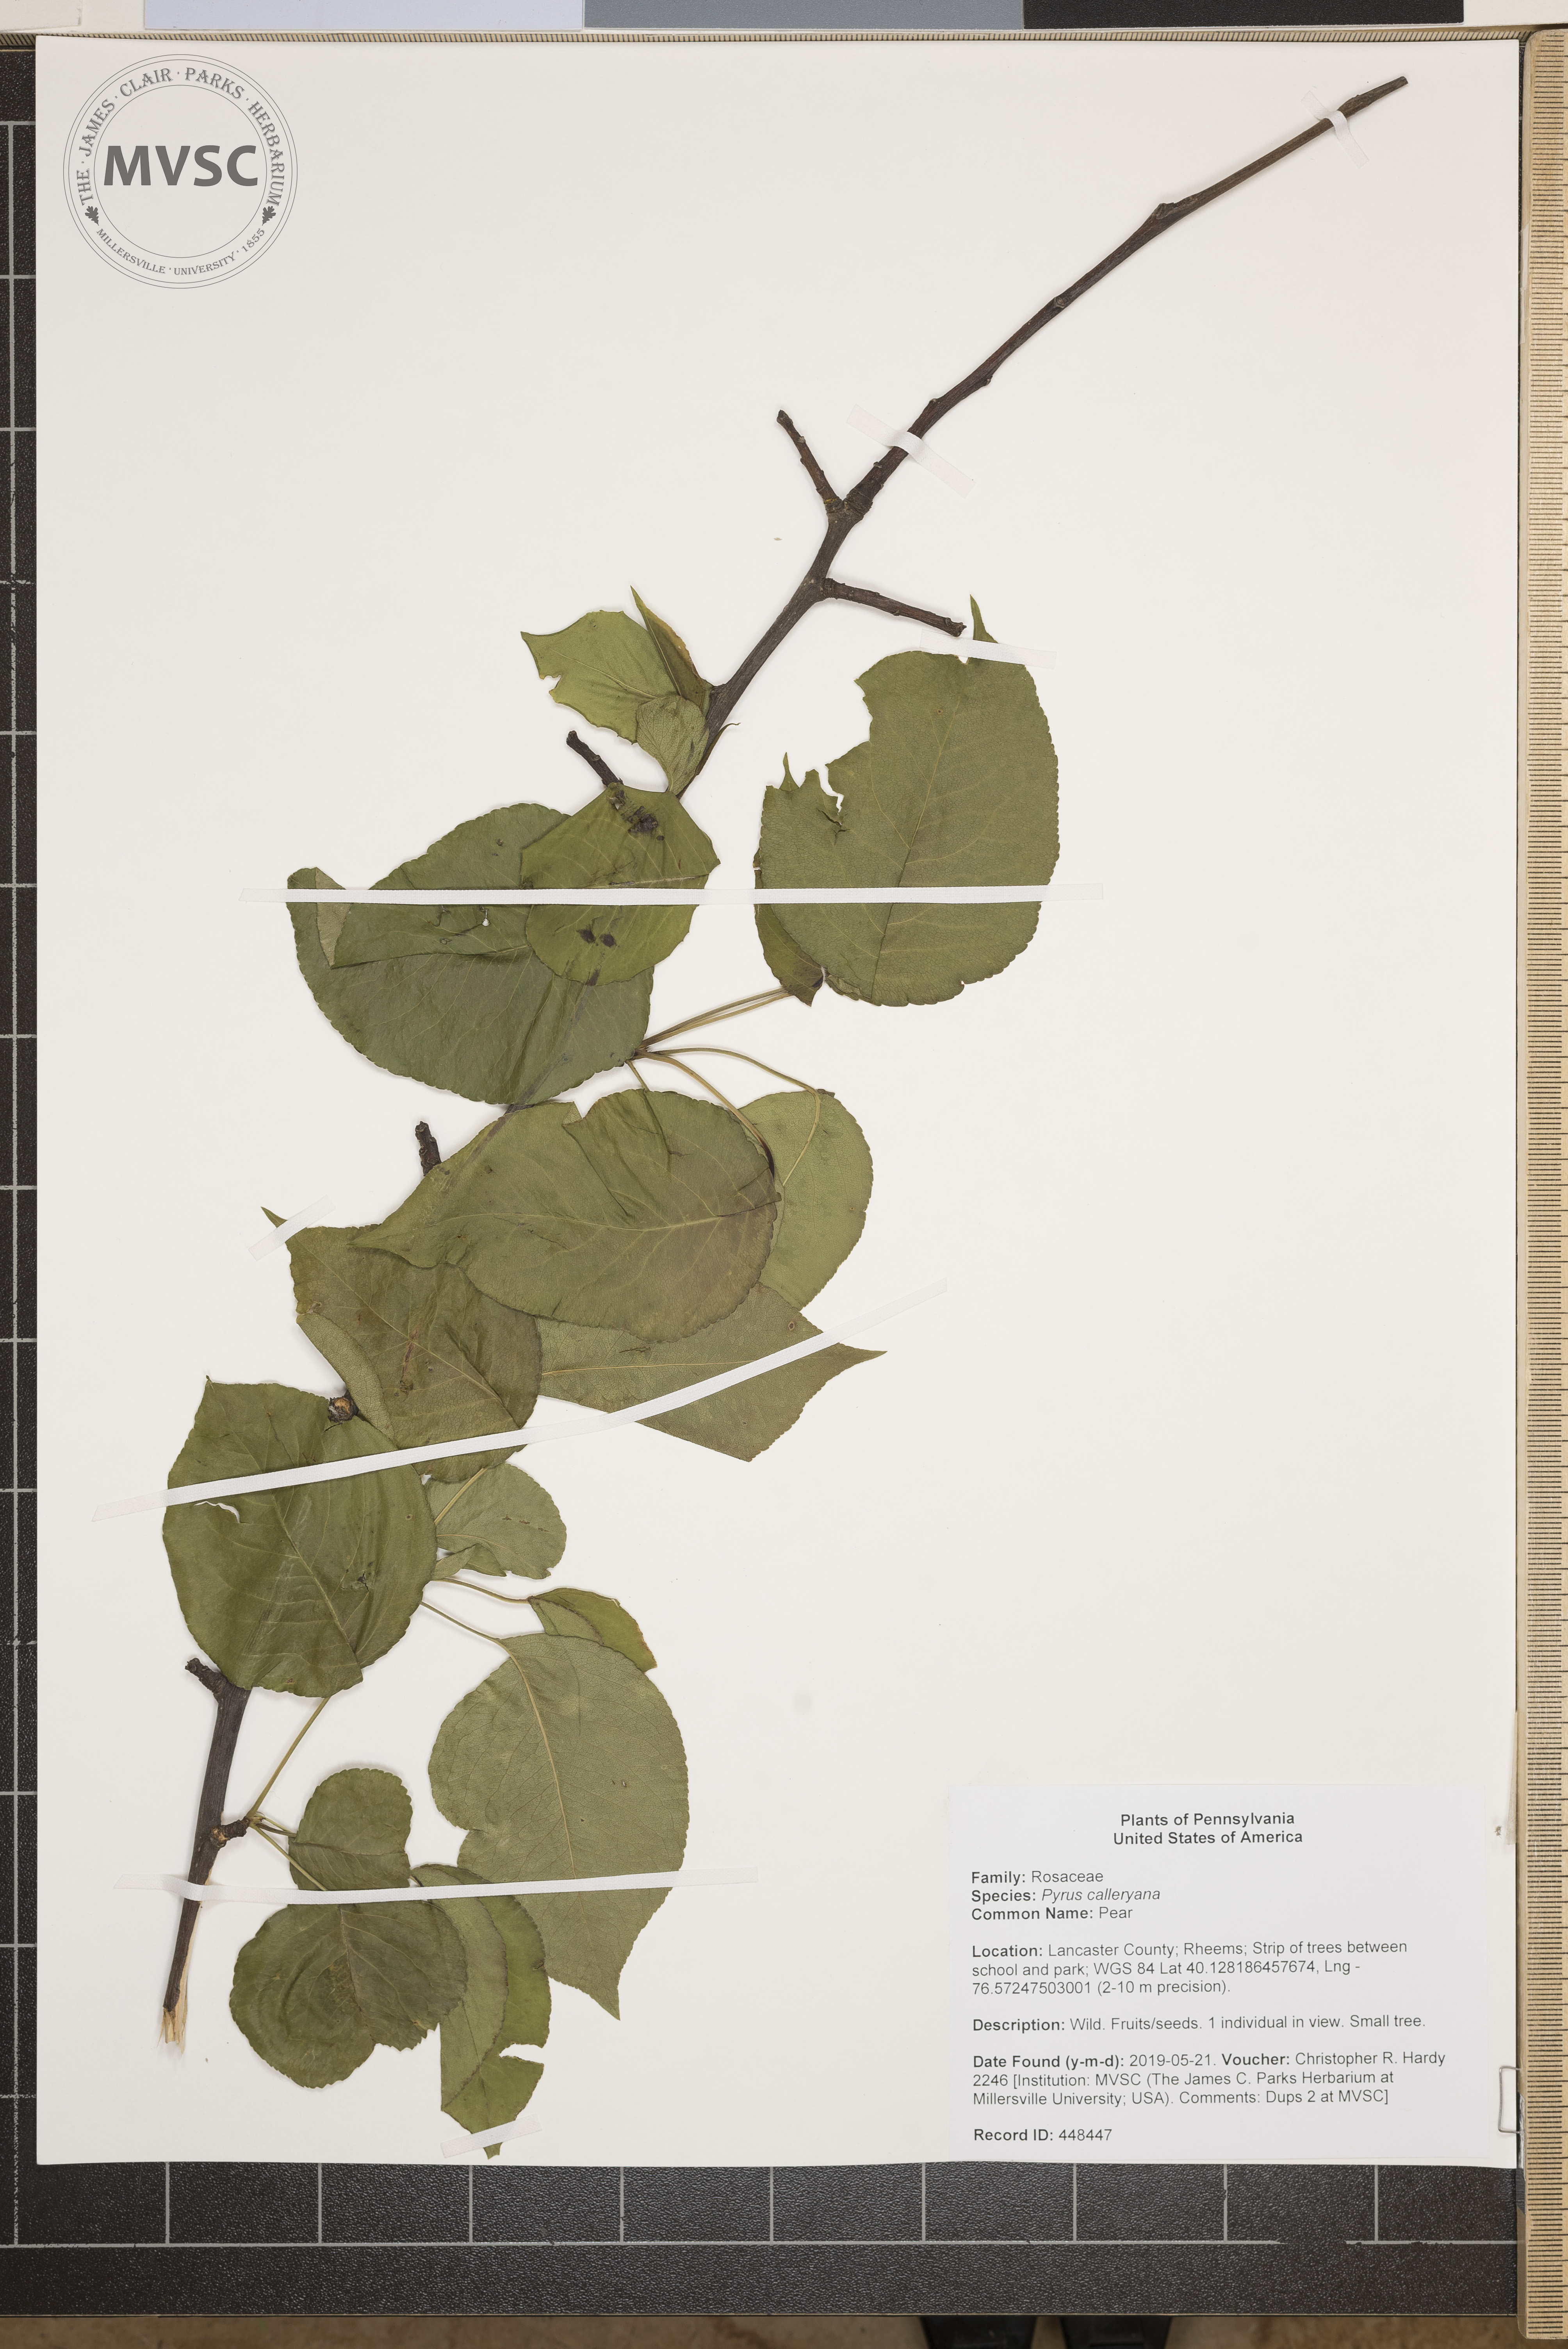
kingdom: Plantae
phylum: Tracheophyta
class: Magnoliopsida
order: Rosales
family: Rosaceae
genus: Pyrus
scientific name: Pyrus calleryana
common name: Pear
